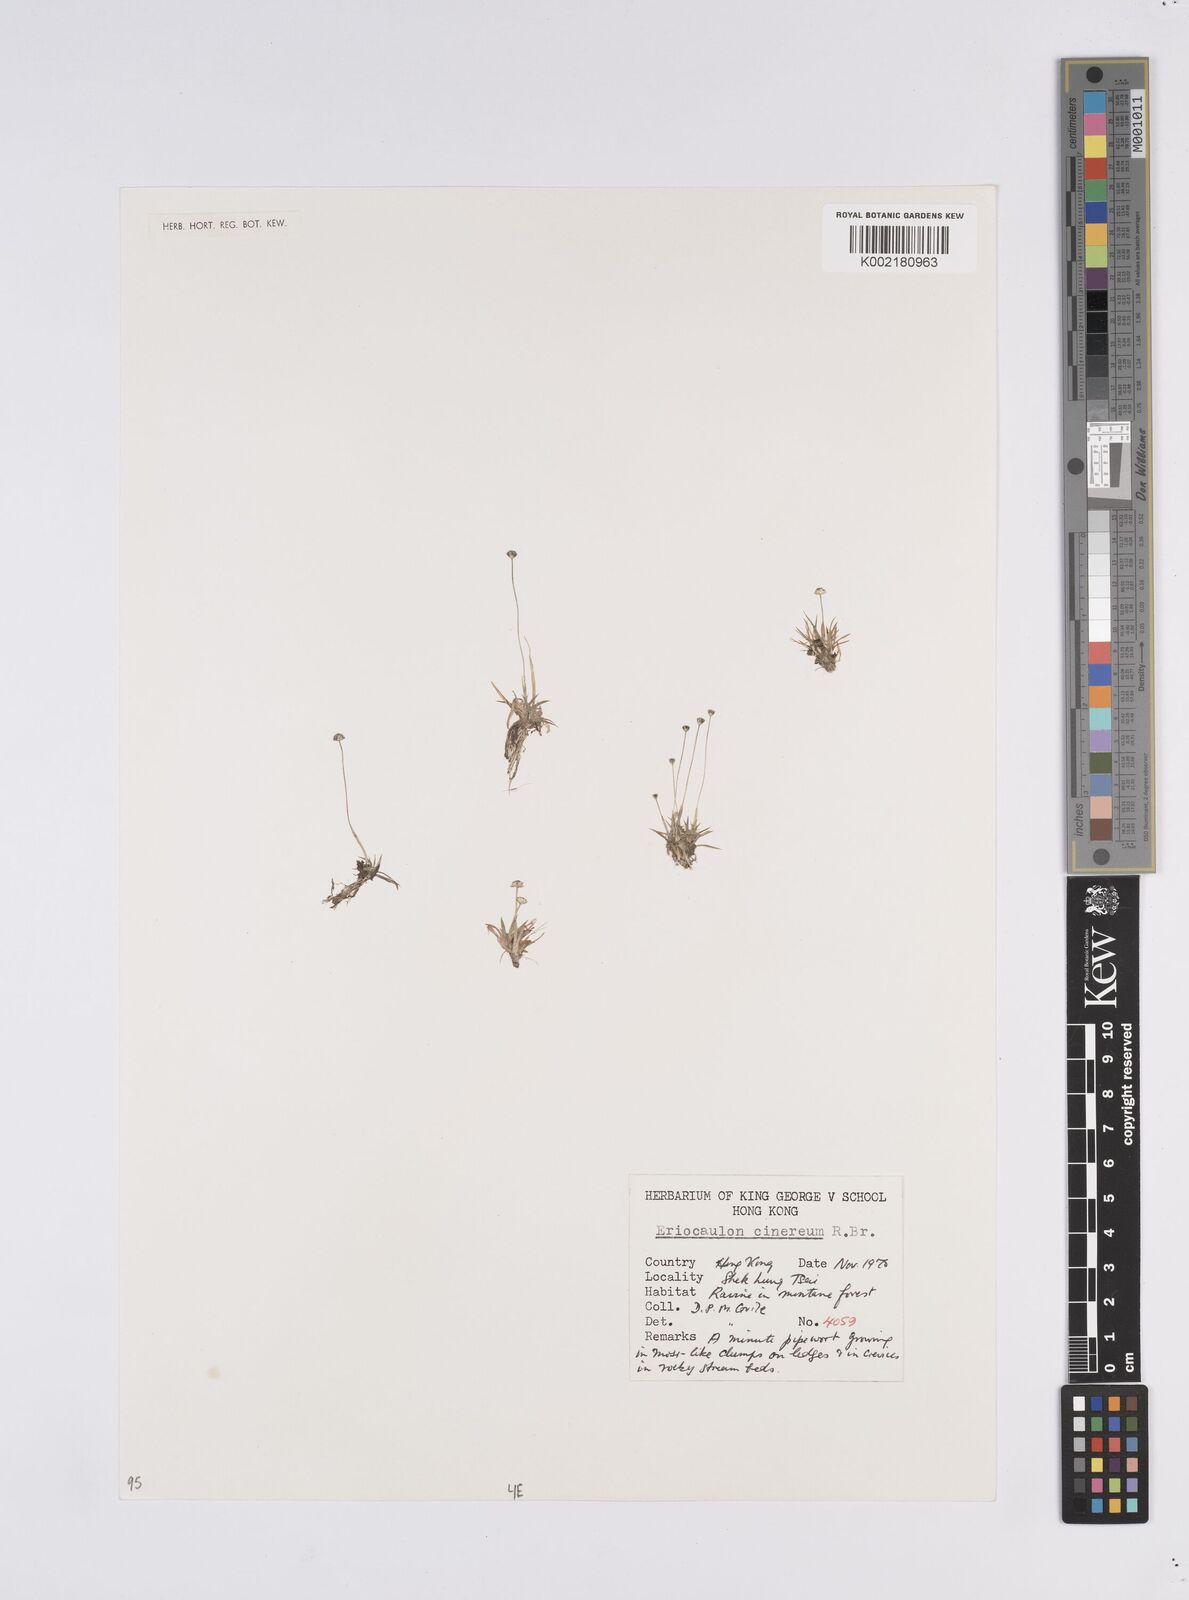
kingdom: Plantae
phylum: Tracheophyta
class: Liliopsida
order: Poales
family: Eriocaulaceae
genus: Eriocaulon
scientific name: Eriocaulon australe
